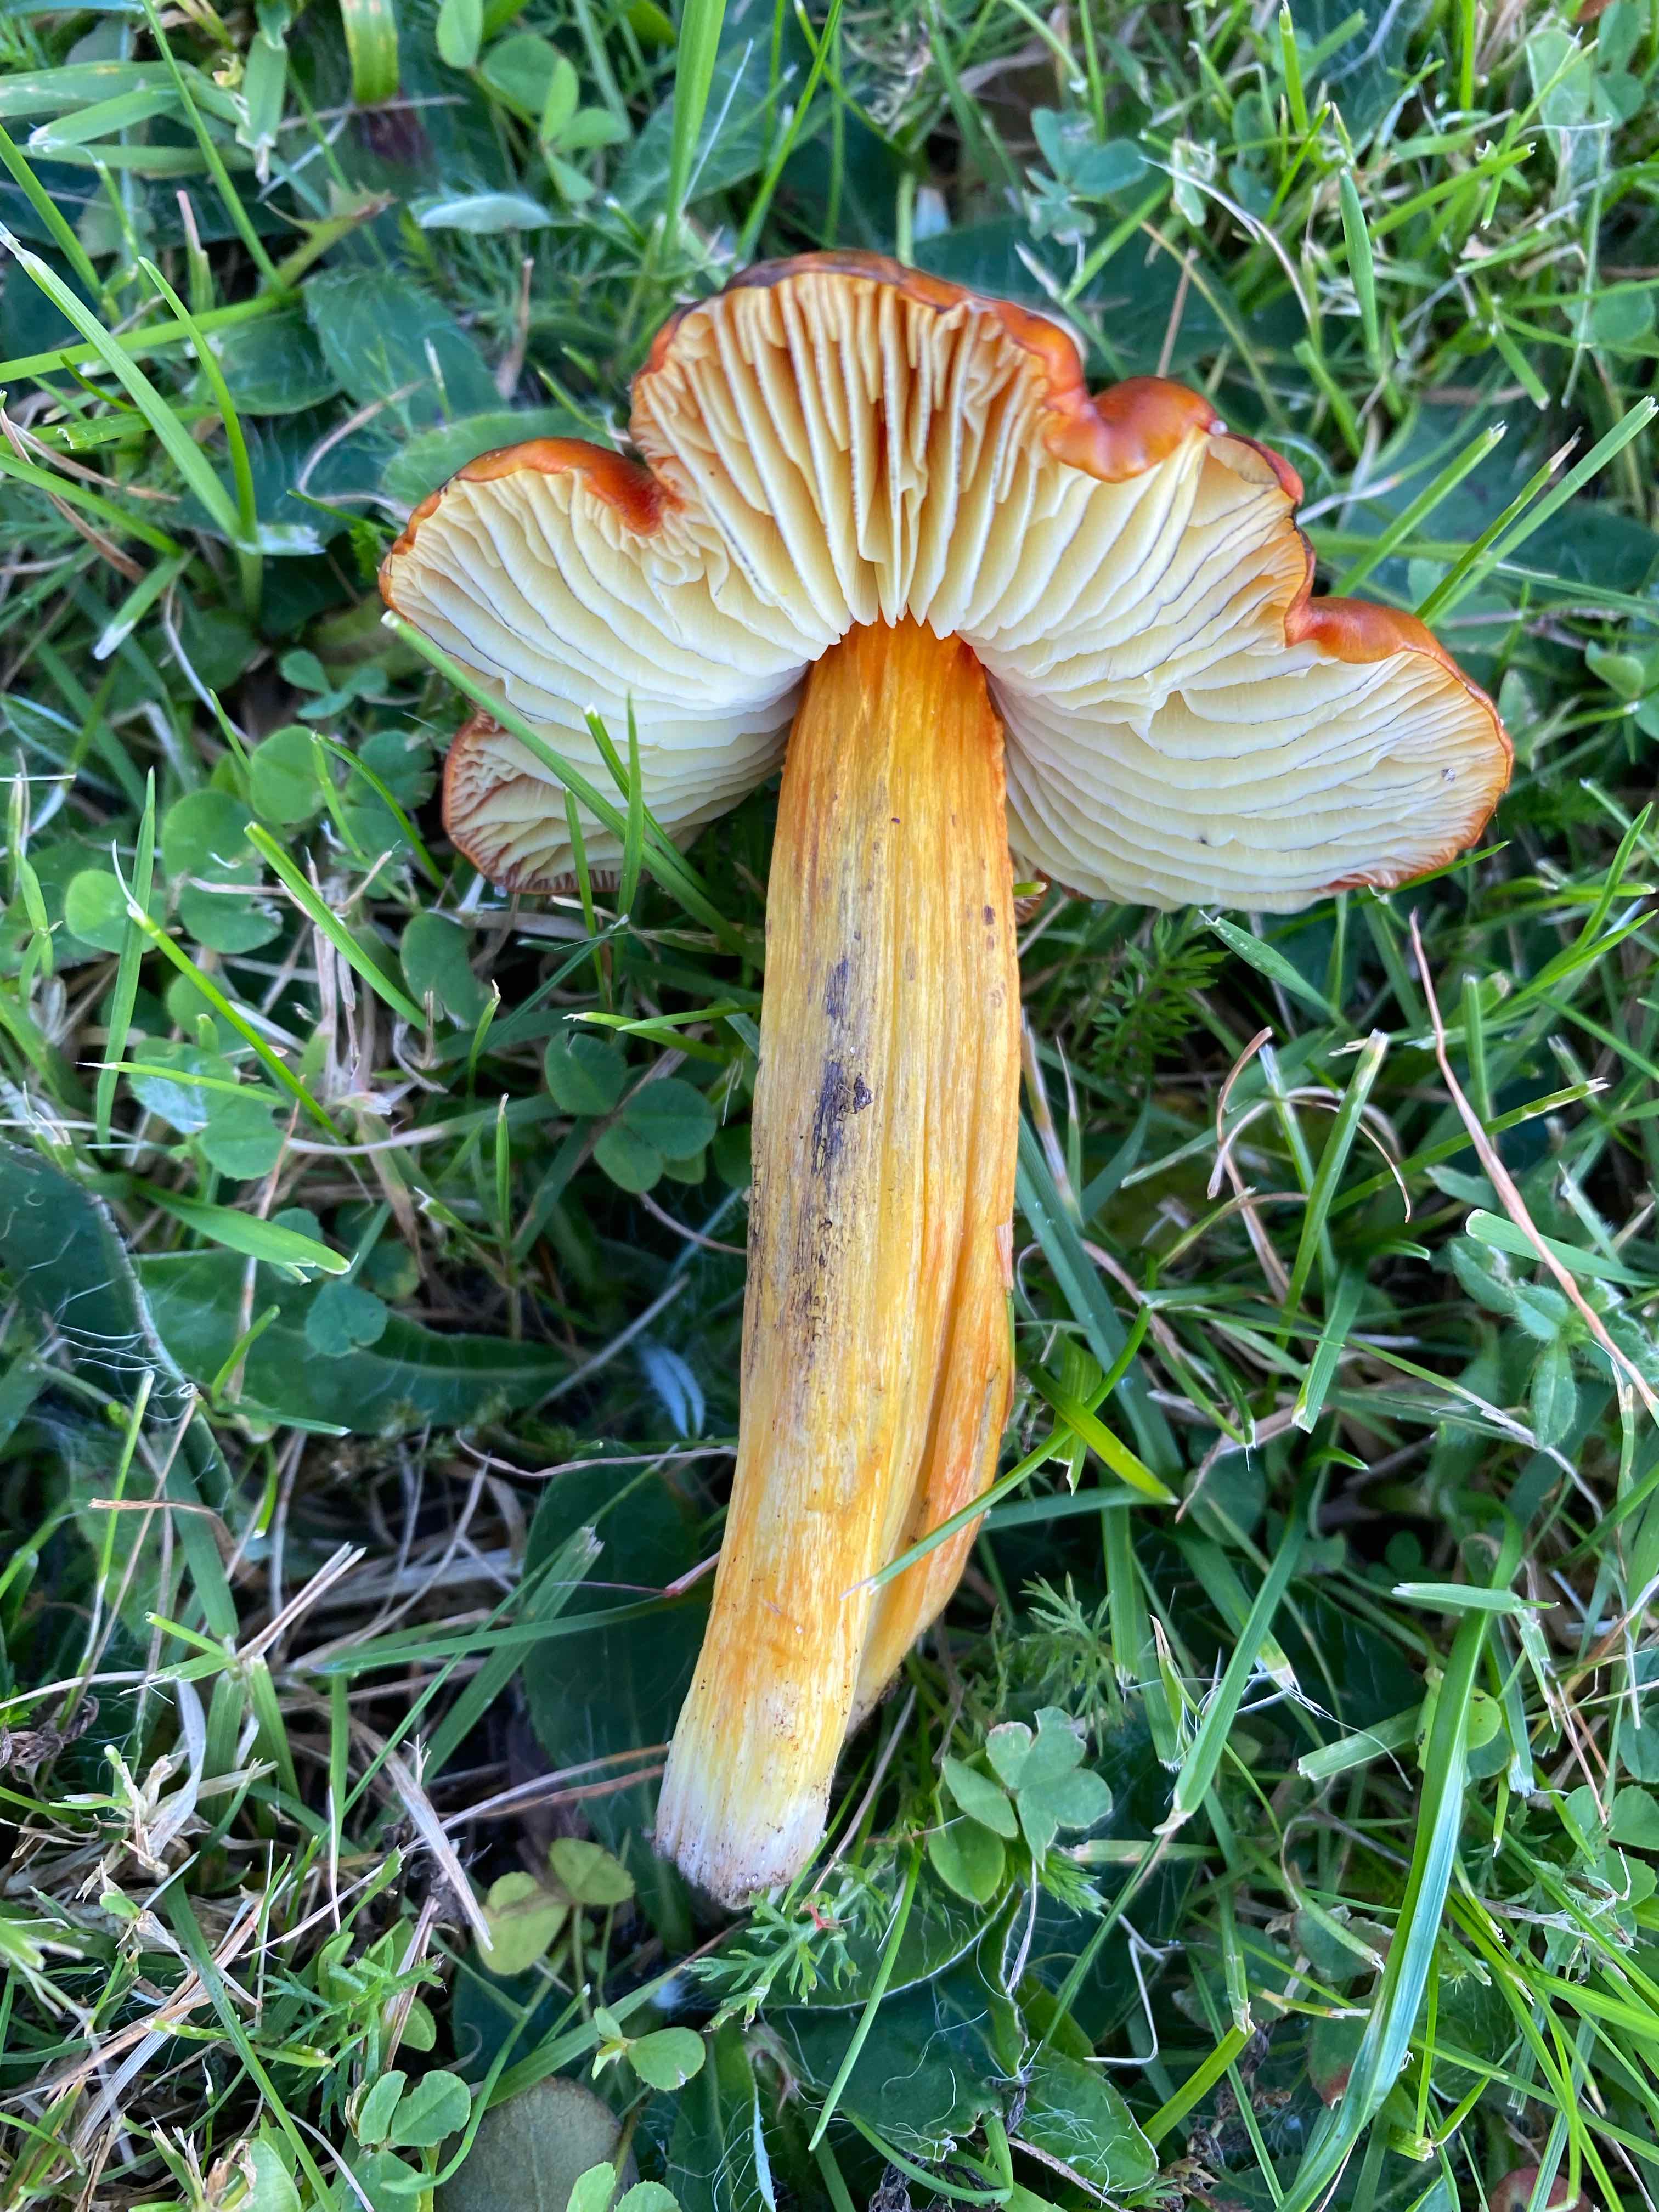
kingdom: Fungi
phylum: Basidiomycota
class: Agaricomycetes
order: Agaricales
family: Hygrophoraceae
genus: Hygrocybe
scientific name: Hygrocybe conica
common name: kegle-vokshat
